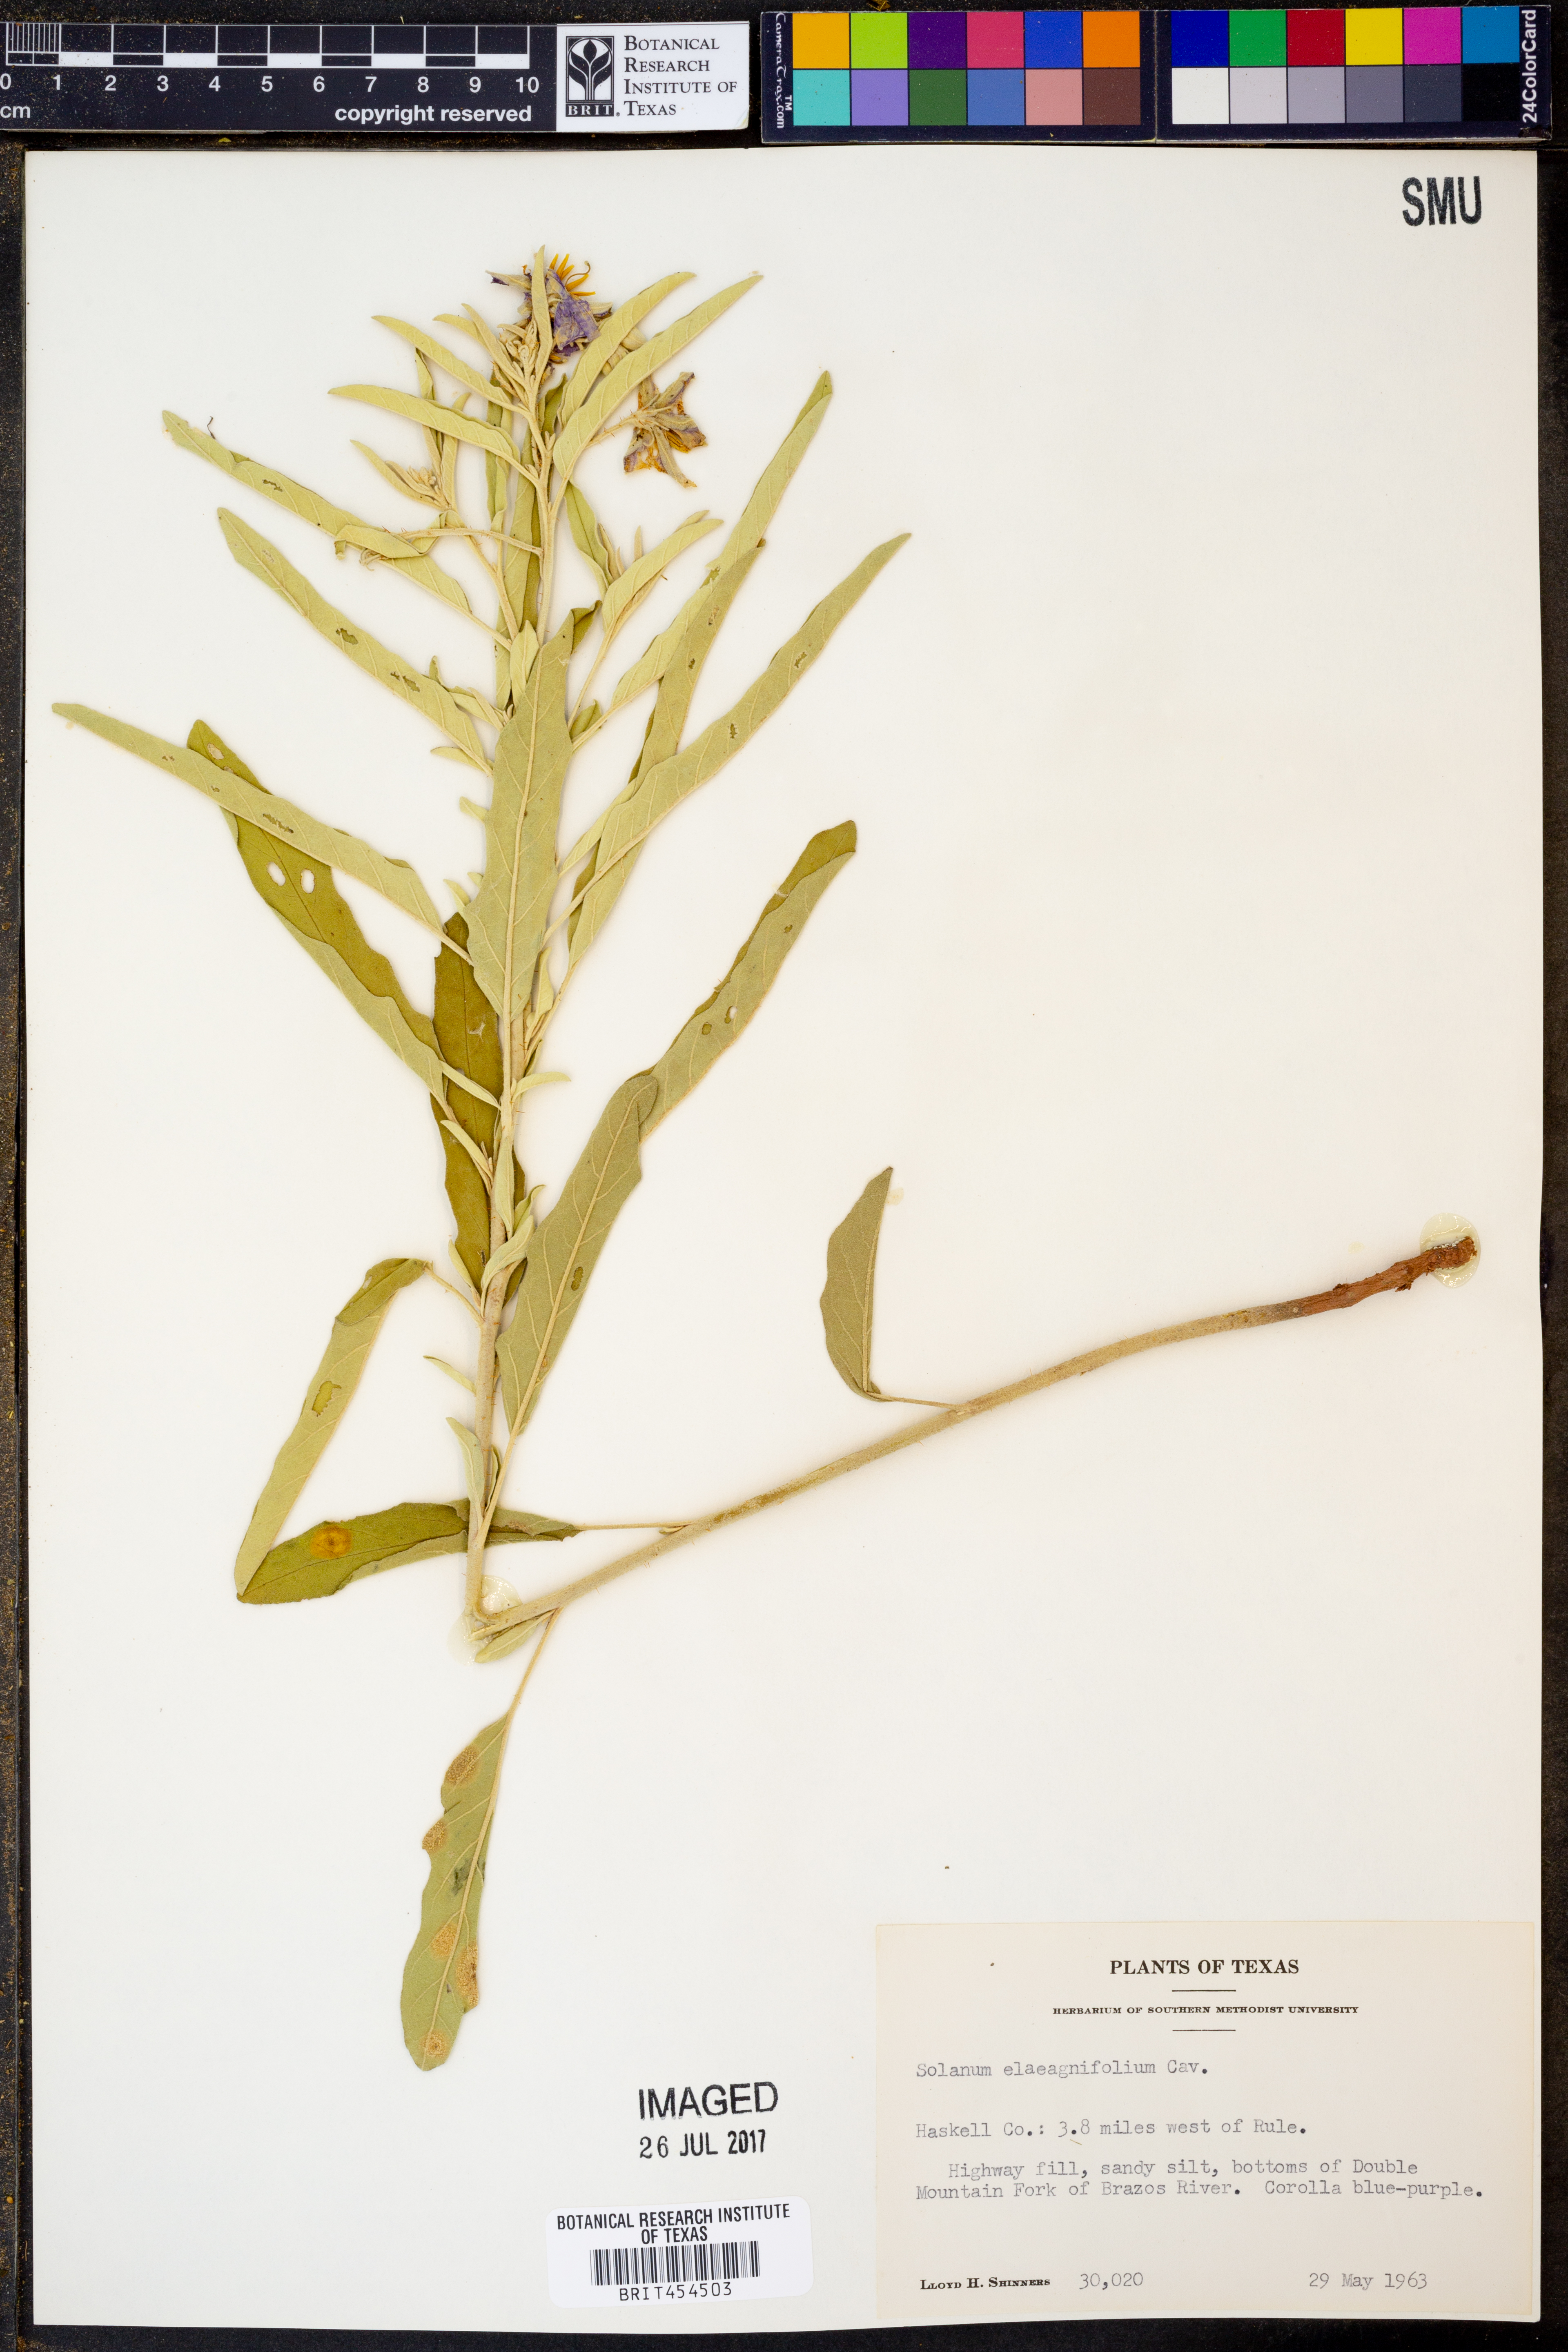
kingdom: Plantae
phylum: Tracheophyta
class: Magnoliopsida
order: Solanales
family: Solanaceae
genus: Solanum
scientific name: Solanum elaeagnifolium
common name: Silverleaf nightshade
